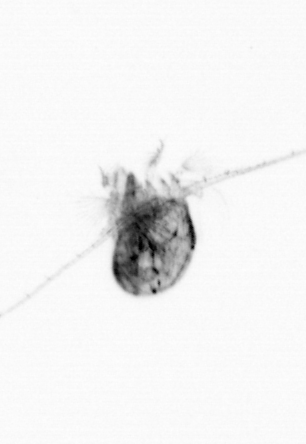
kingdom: Animalia
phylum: Arthropoda
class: Copepoda
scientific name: Copepoda
